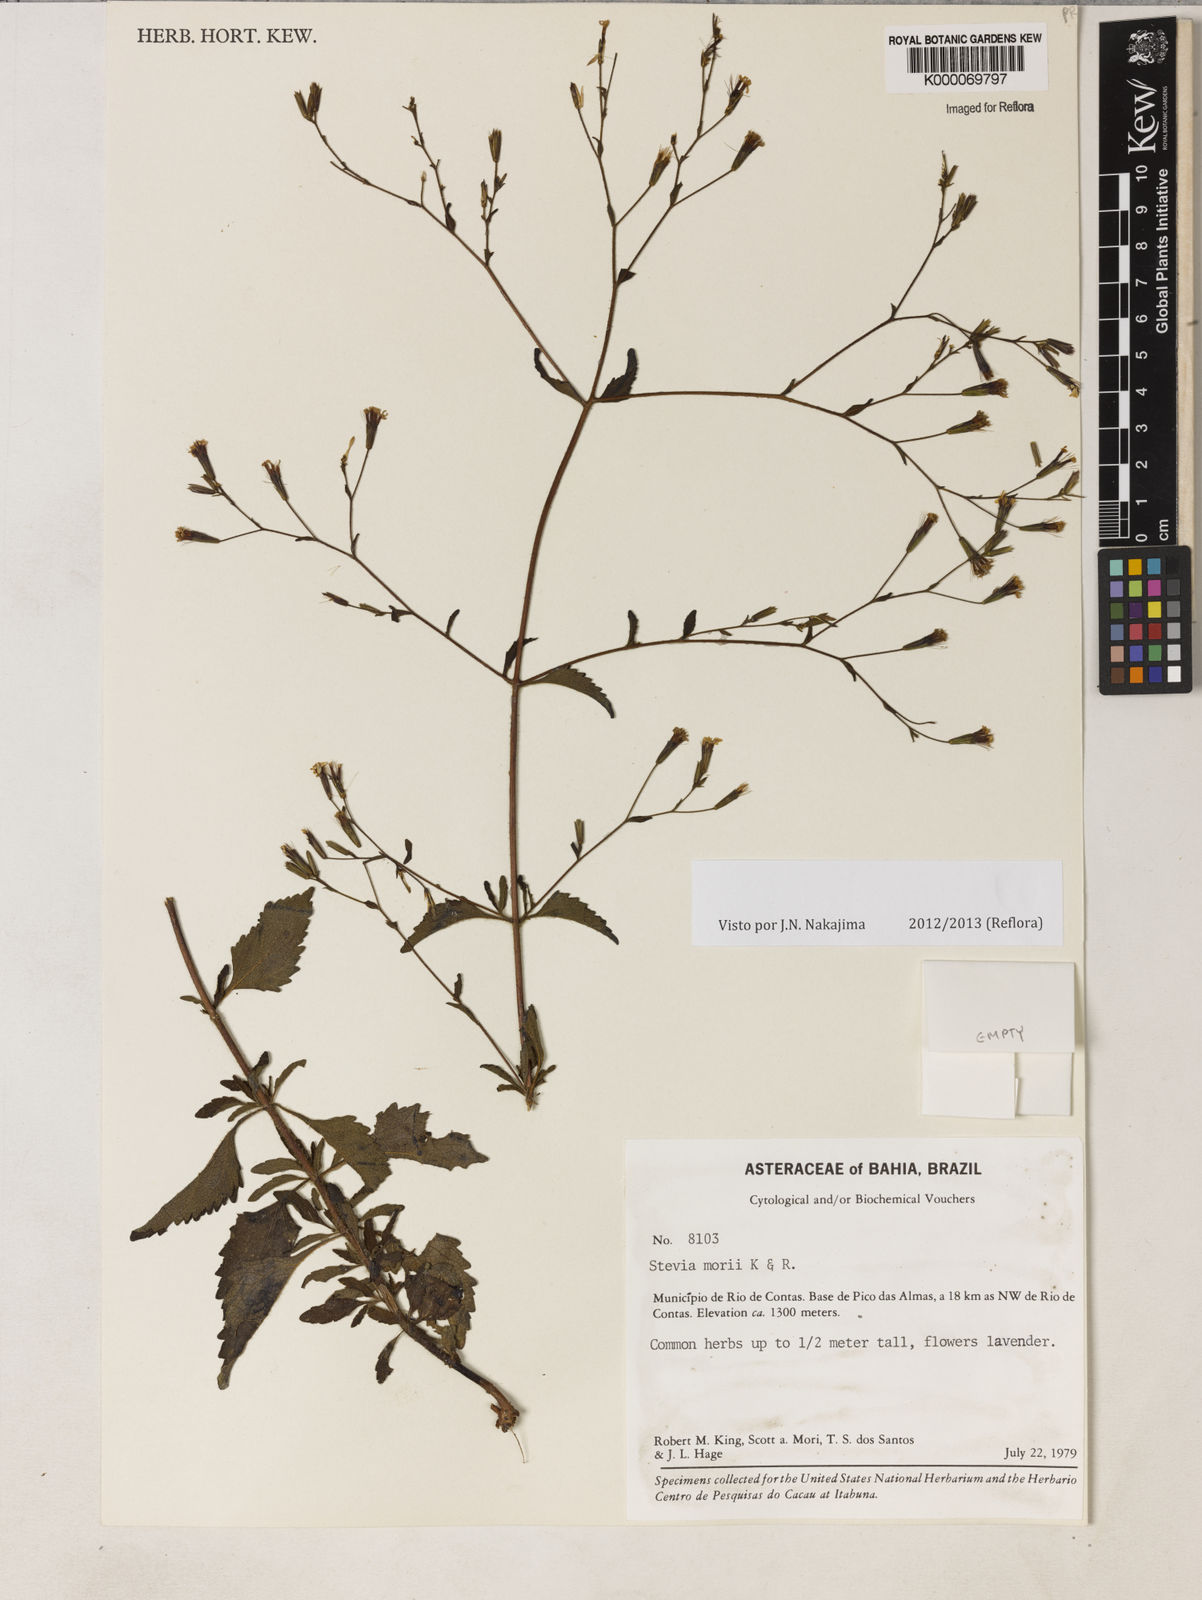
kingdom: Plantae
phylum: Tracheophyta
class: Magnoliopsida
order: Asterales
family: Asteraceae
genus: Stevia
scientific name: Stevia morii
